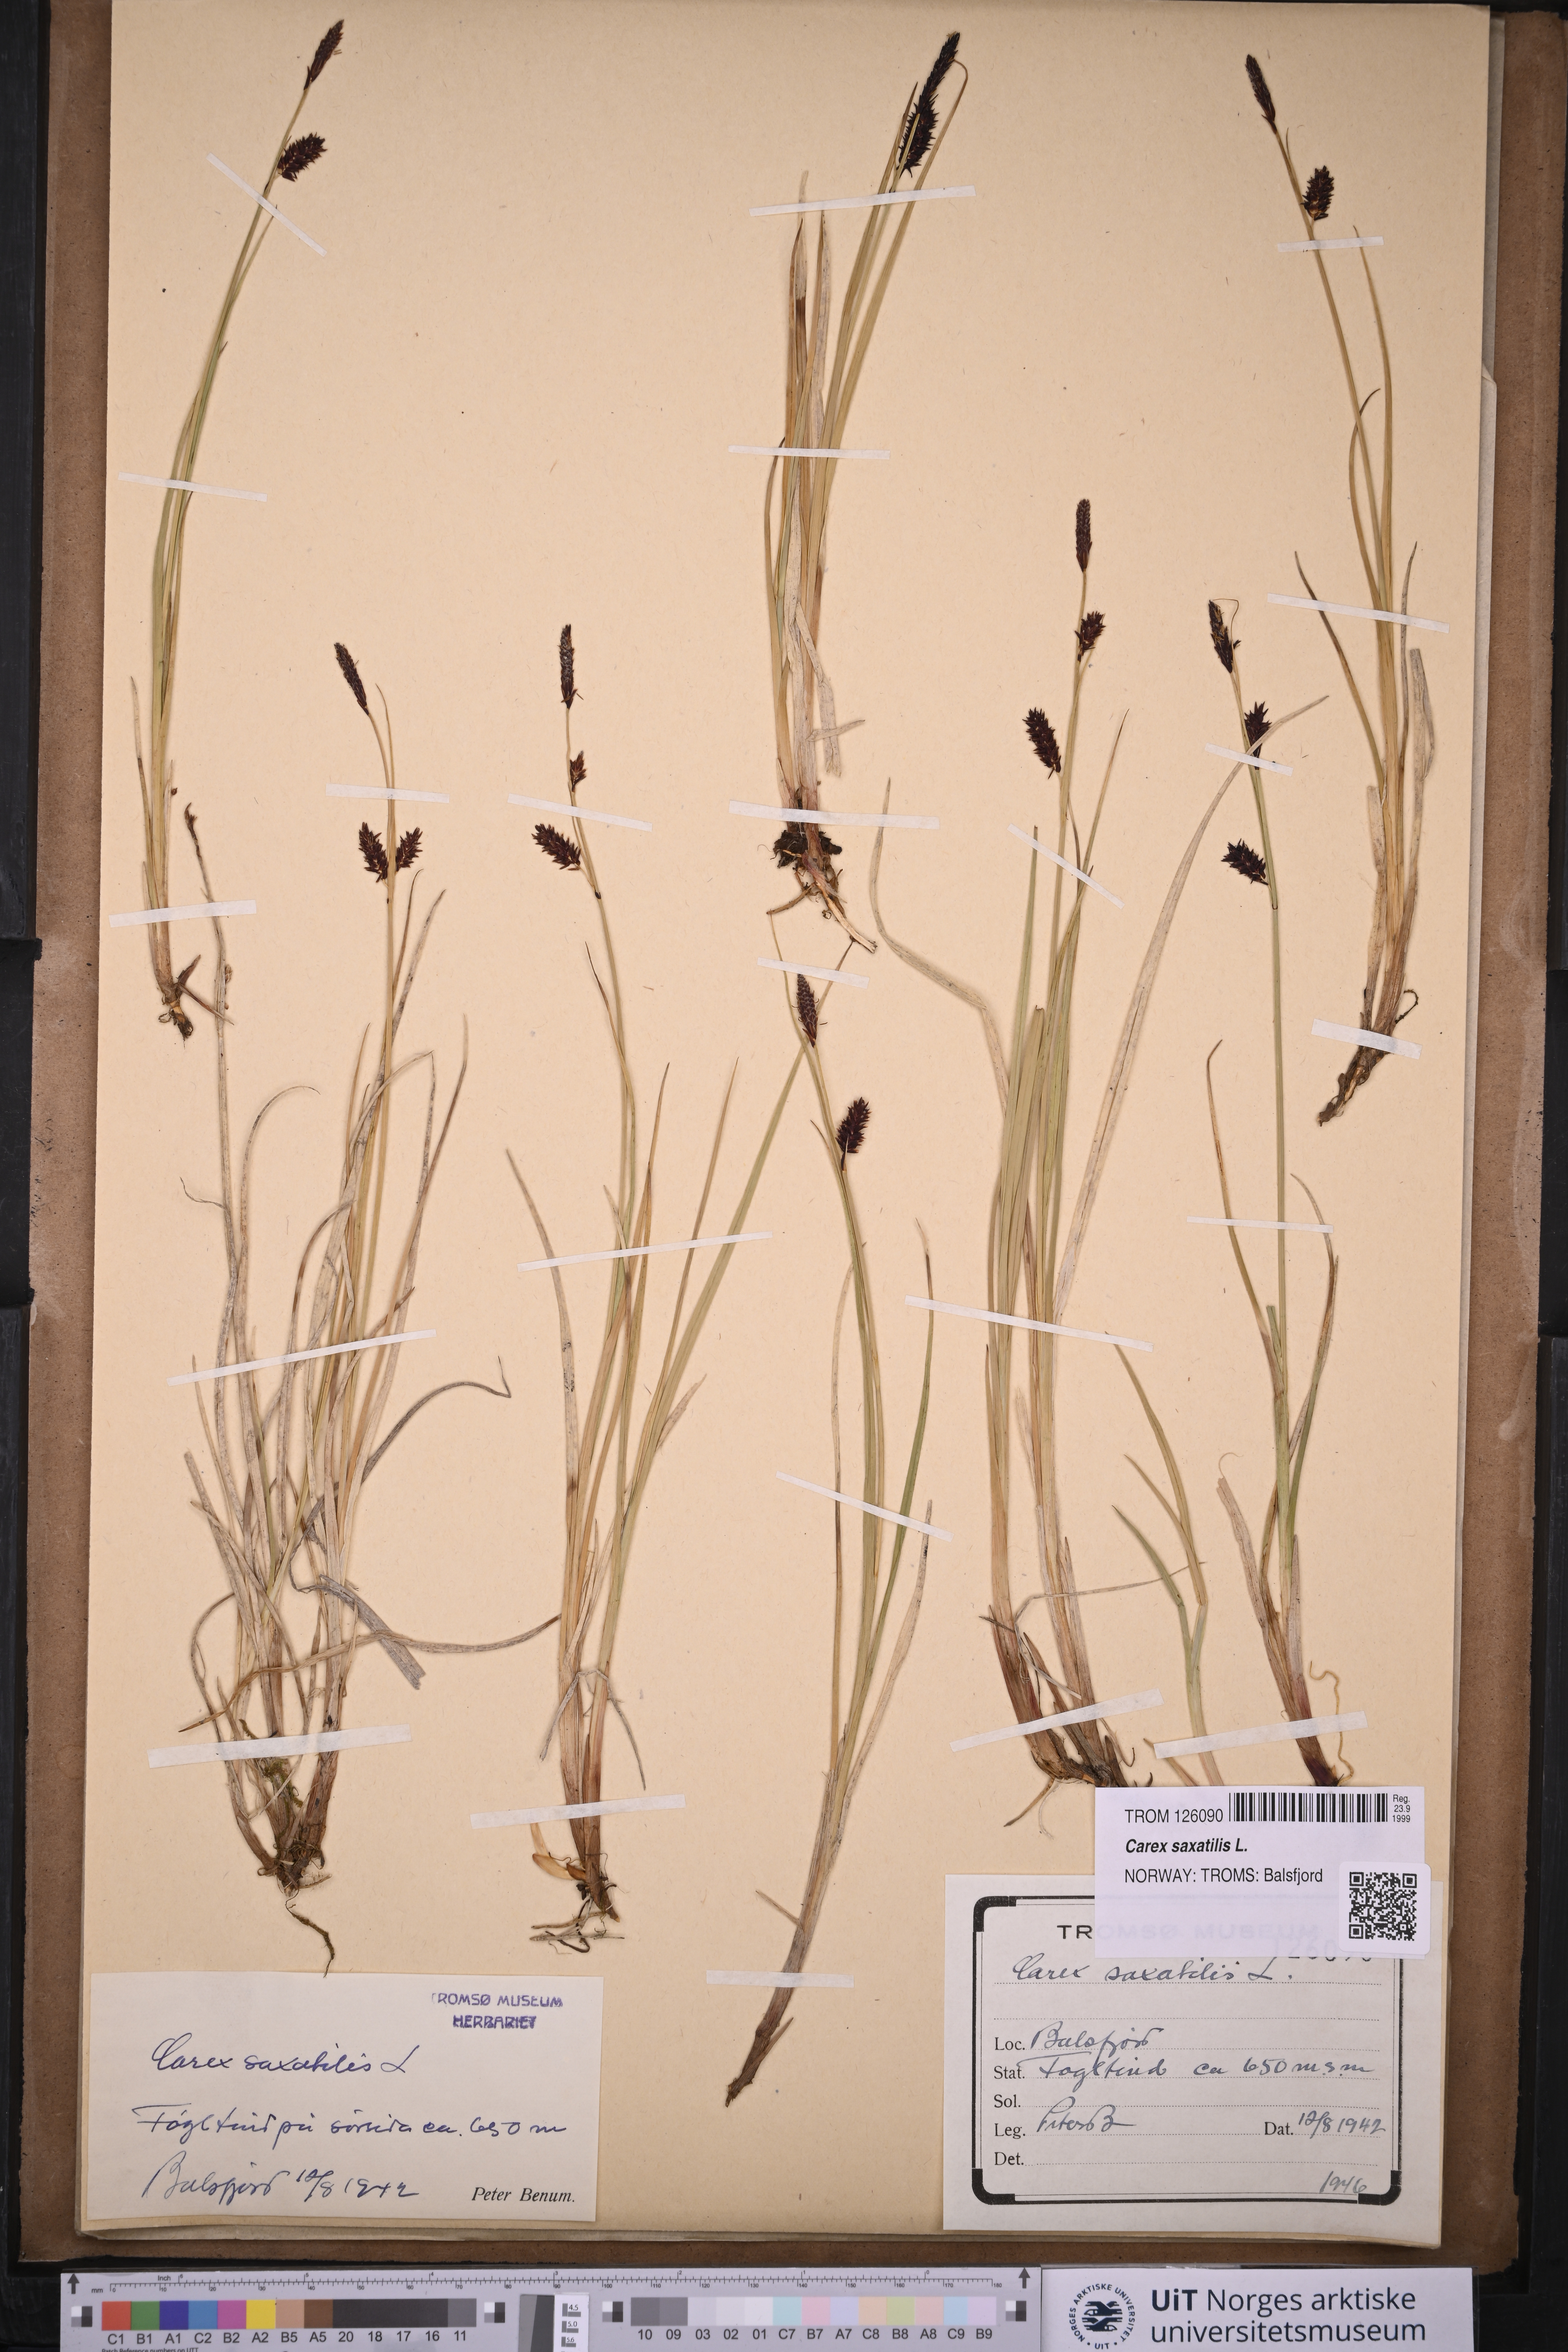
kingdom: Plantae
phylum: Tracheophyta
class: Liliopsida
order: Poales
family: Cyperaceae
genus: Carex
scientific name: Carex saxatilis
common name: Russet sedge
